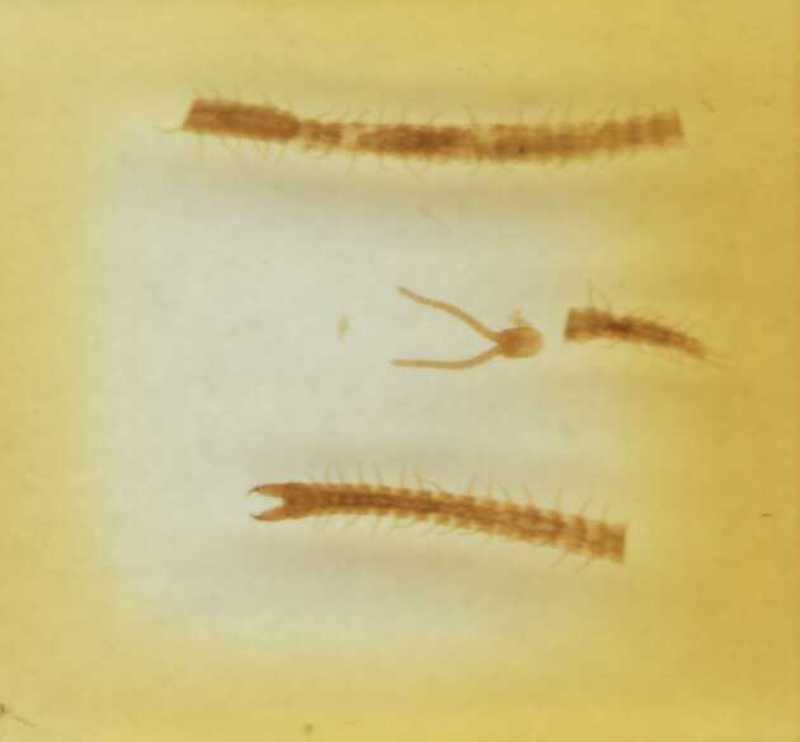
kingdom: Animalia
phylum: Arthropoda
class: Chilopoda
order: Geophilomorpha
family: Geophilidae
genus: Polygonarea
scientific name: Polygonarea
